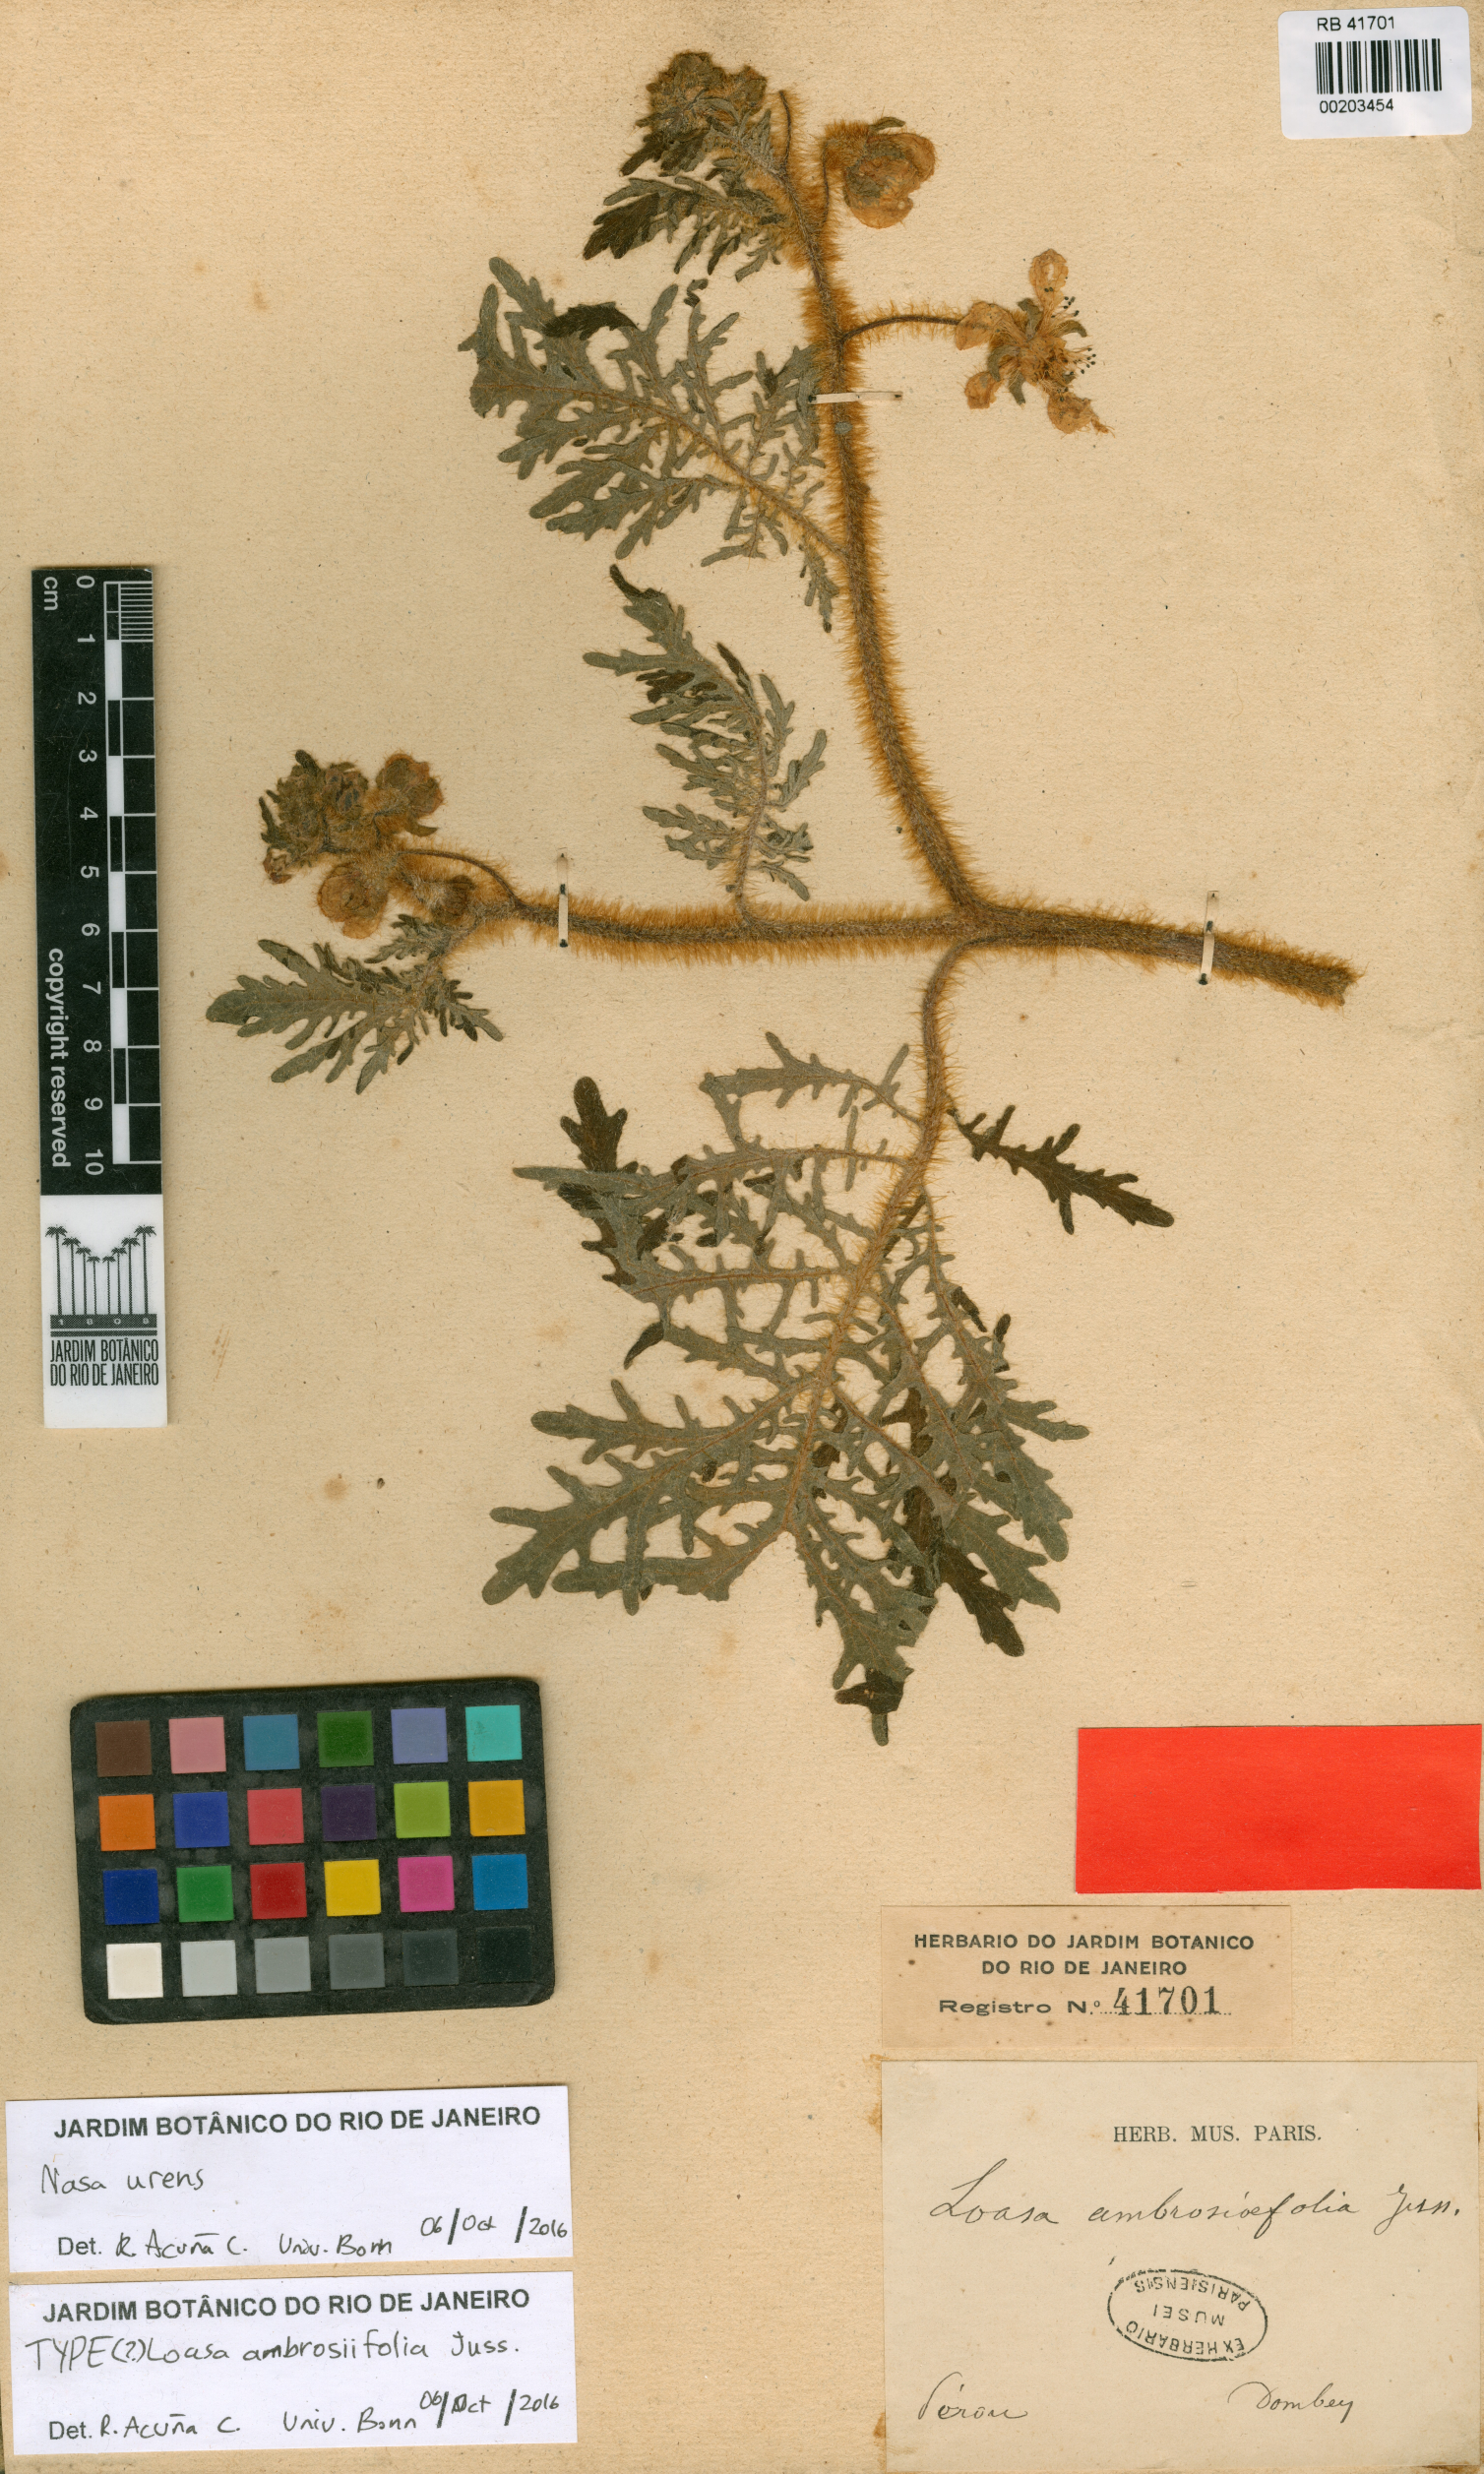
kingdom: Plantae
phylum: Tracheophyta
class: Magnoliopsida
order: Cornales
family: Loasaceae
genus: Nasa
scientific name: Nasa urens
